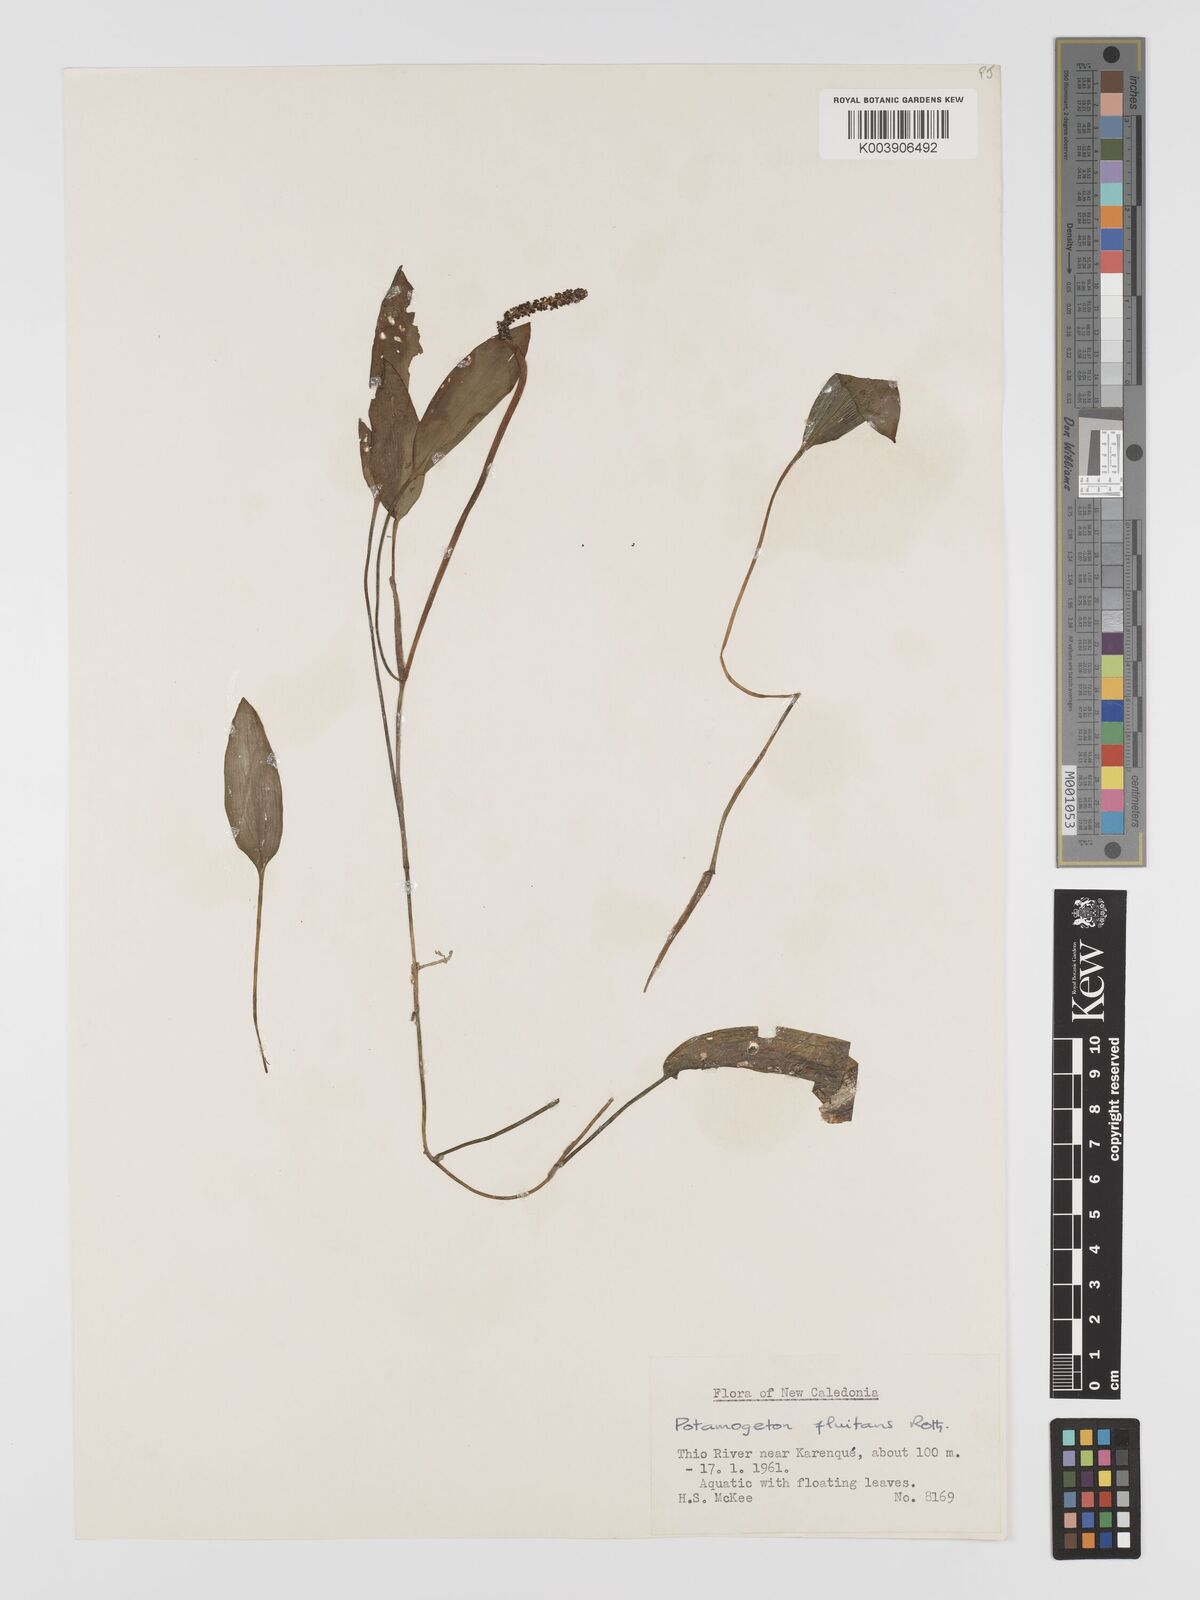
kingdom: Plantae
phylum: Tracheophyta
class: Liliopsida
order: Alismatales
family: Potamogetonaceae
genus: Potamogeton
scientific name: Potamogeton nodosus
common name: Loddon pondweed
